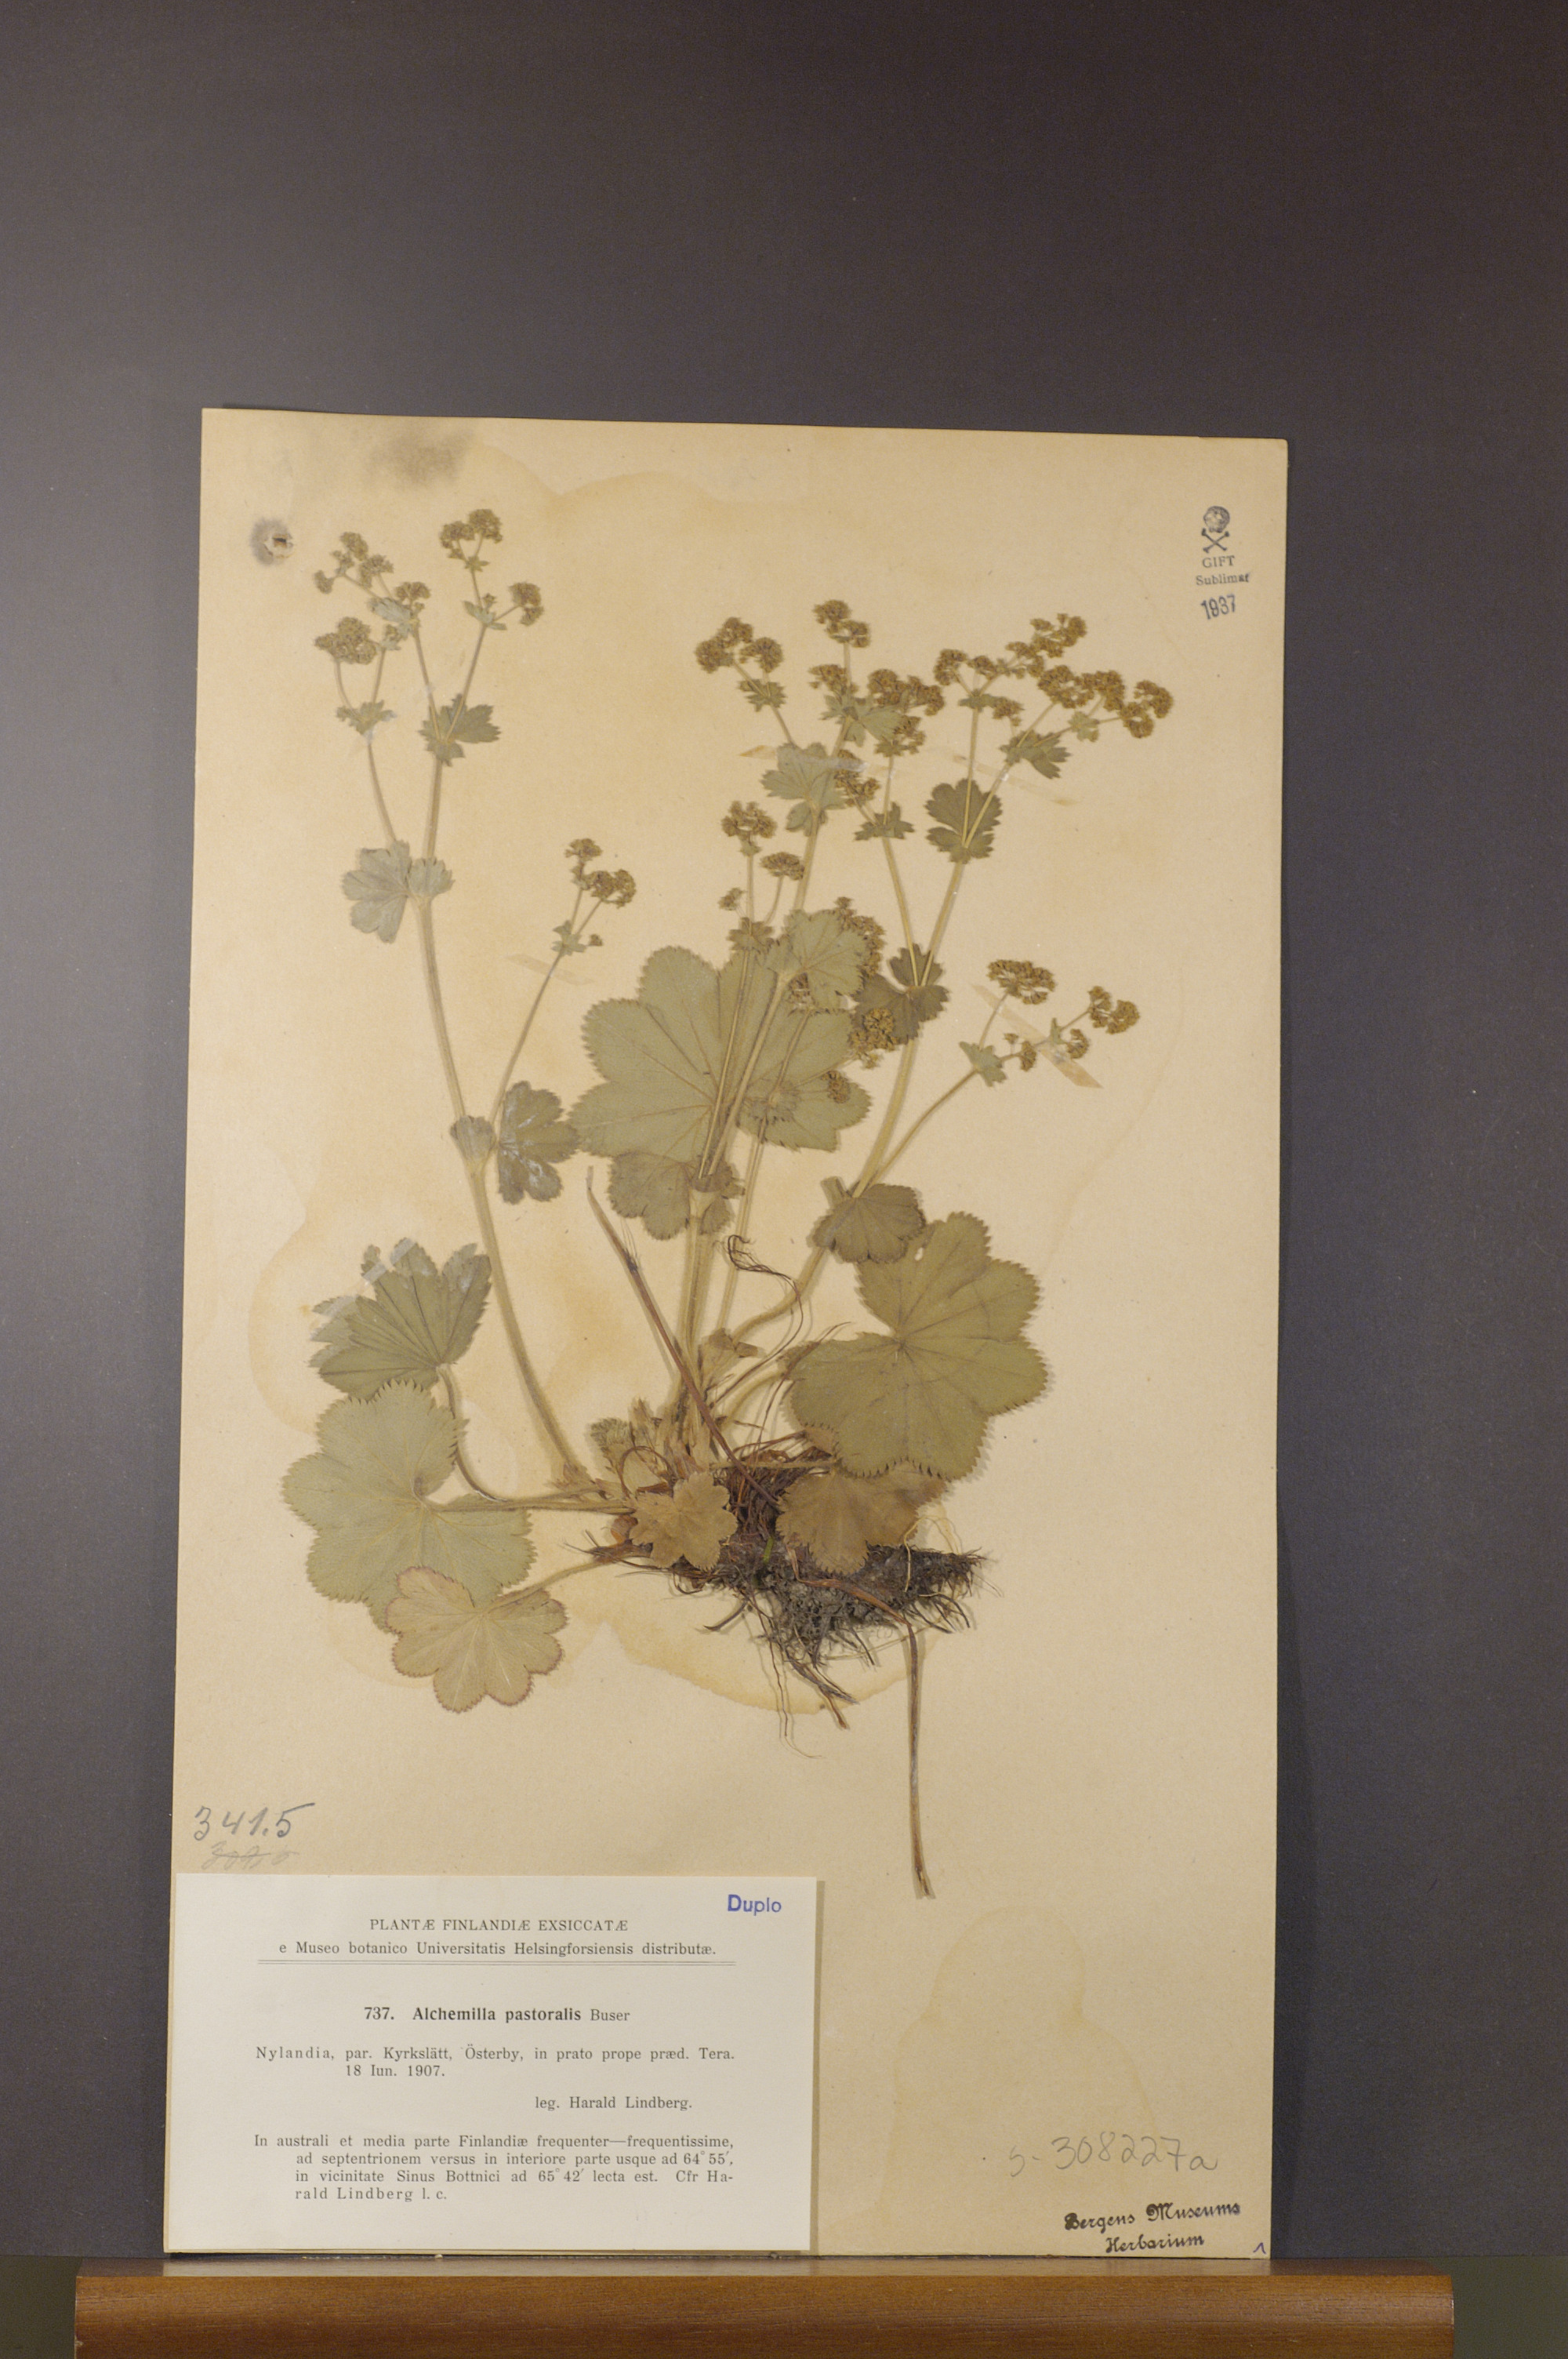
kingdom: Plantae
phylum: Tracheophyta
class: Magnoliopsida
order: Rosales
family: Rosaceae
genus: Alchemilla
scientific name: Alchemilla monticola
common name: Hairy lady's mantle
